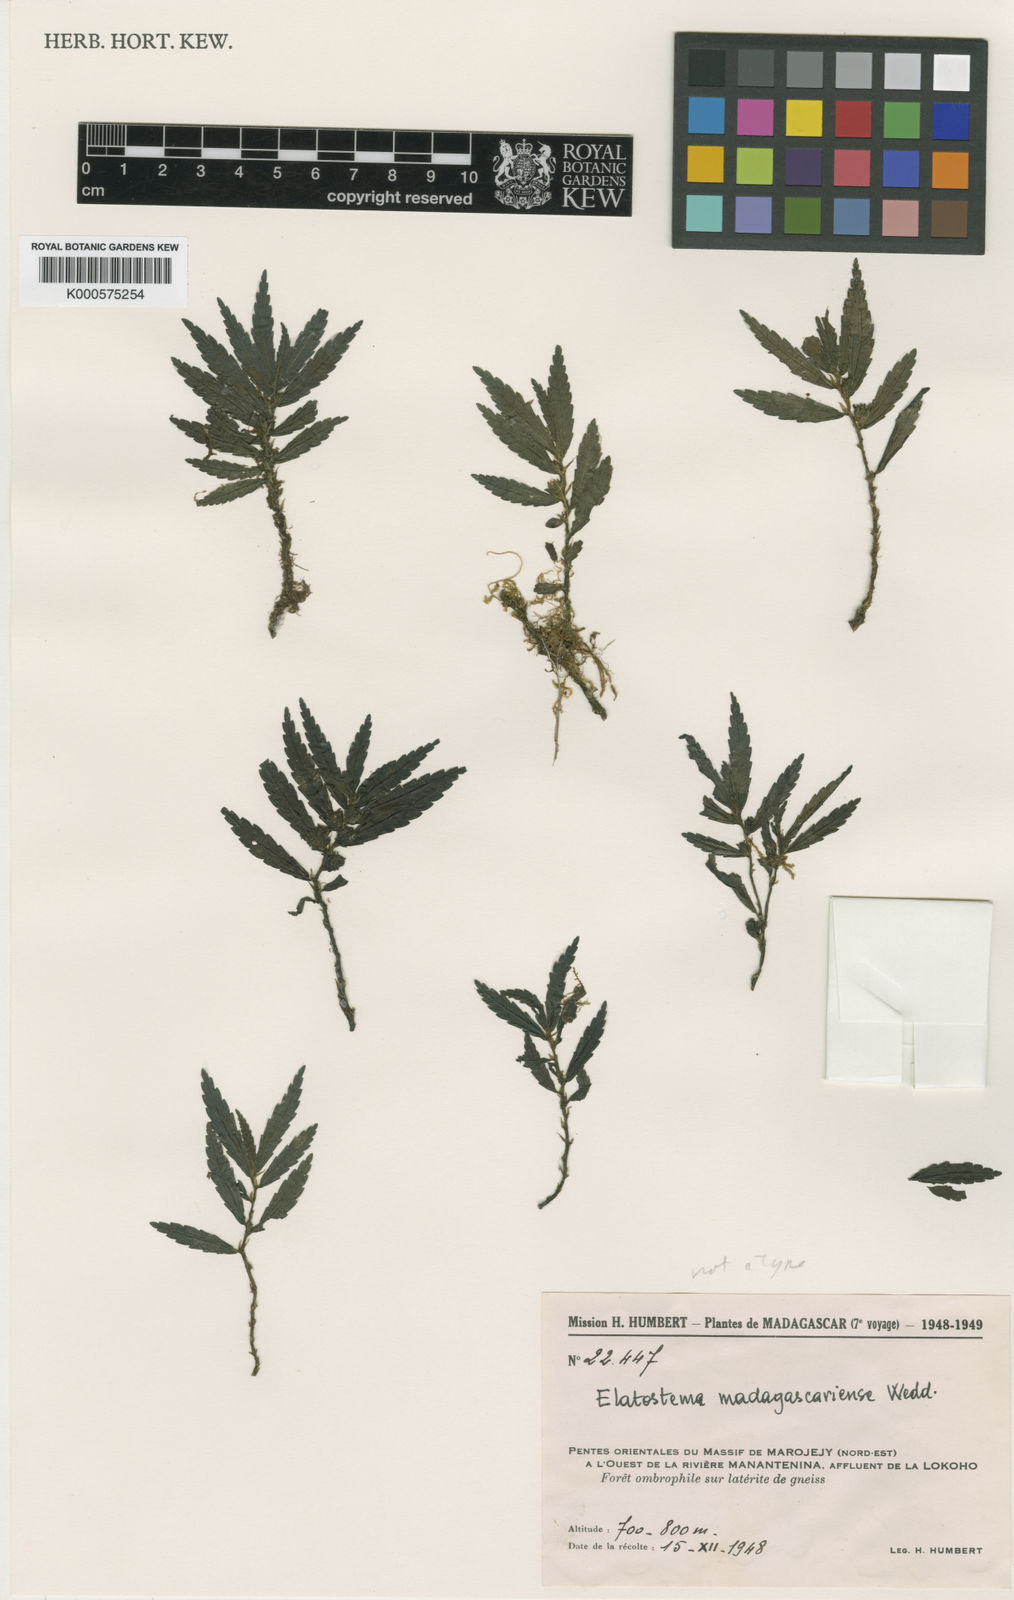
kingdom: Plantae
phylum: Tracheophyta
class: Magnoliopsida
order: Rosales
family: Urticaceae
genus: Elatostema
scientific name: Elatostema madagascariense
